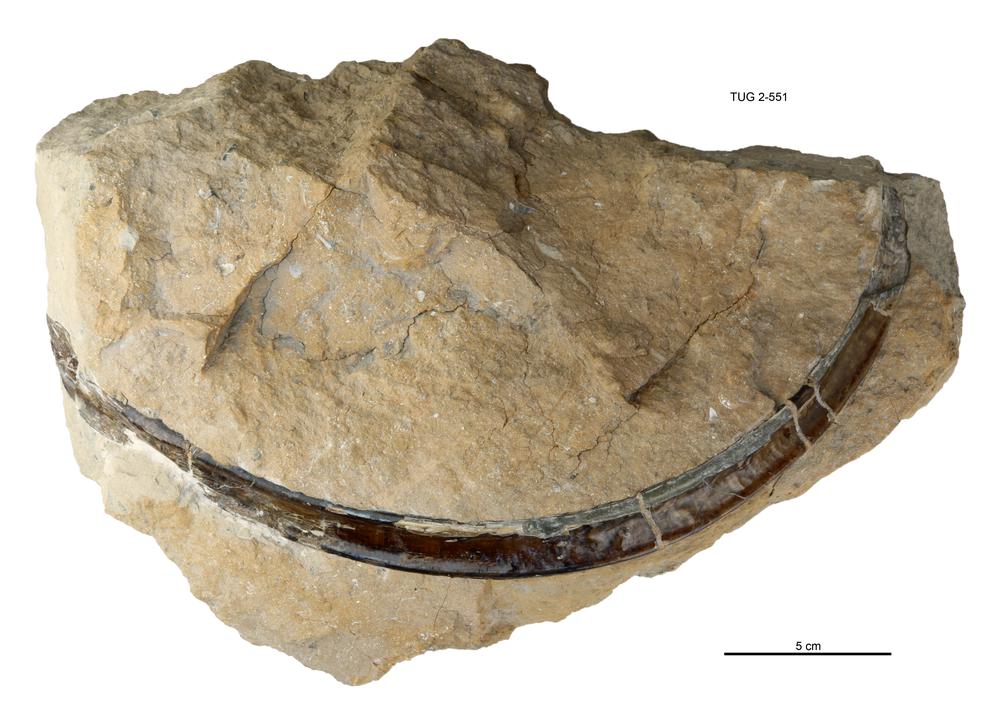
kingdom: Animalia
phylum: Cnidaria
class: Scyphozoa
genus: Sphenothallus
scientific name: Sphenothallus
